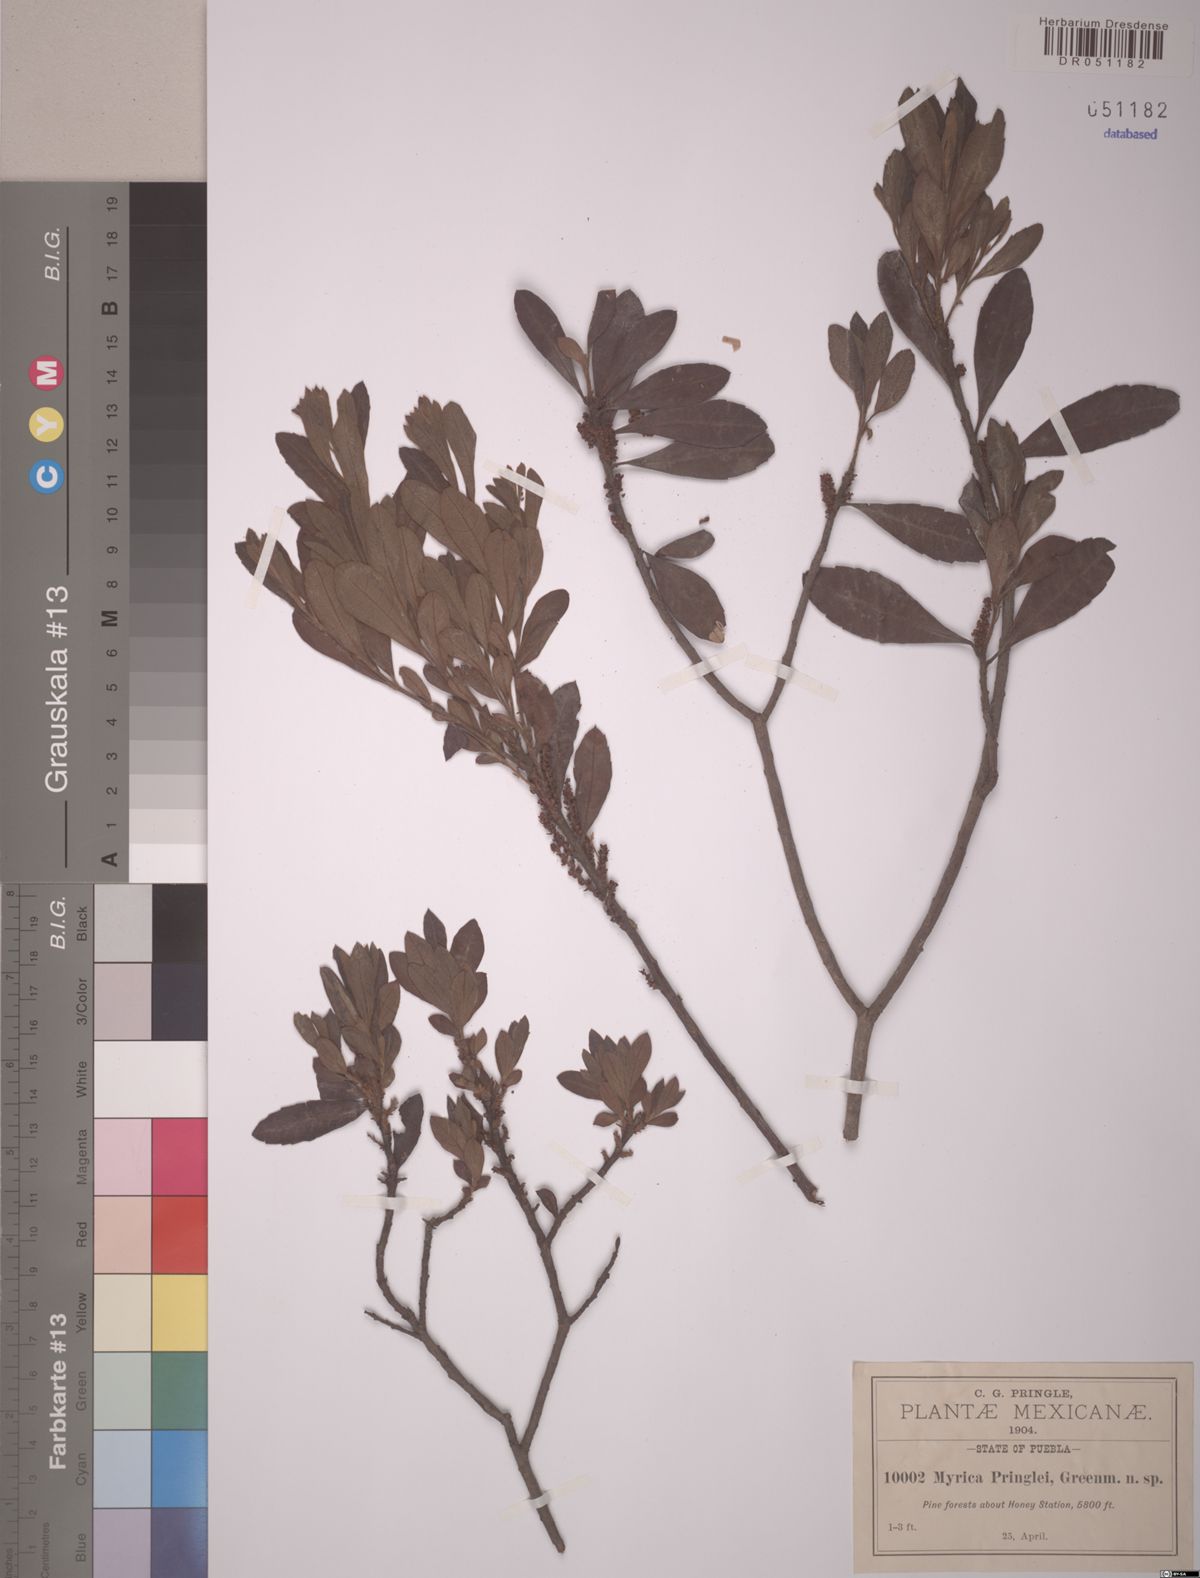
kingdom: Plantae
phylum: Tracheophyta
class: Magnoliopsida
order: Fagales
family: Myricaceae
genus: Morella
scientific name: Morella pringlei
